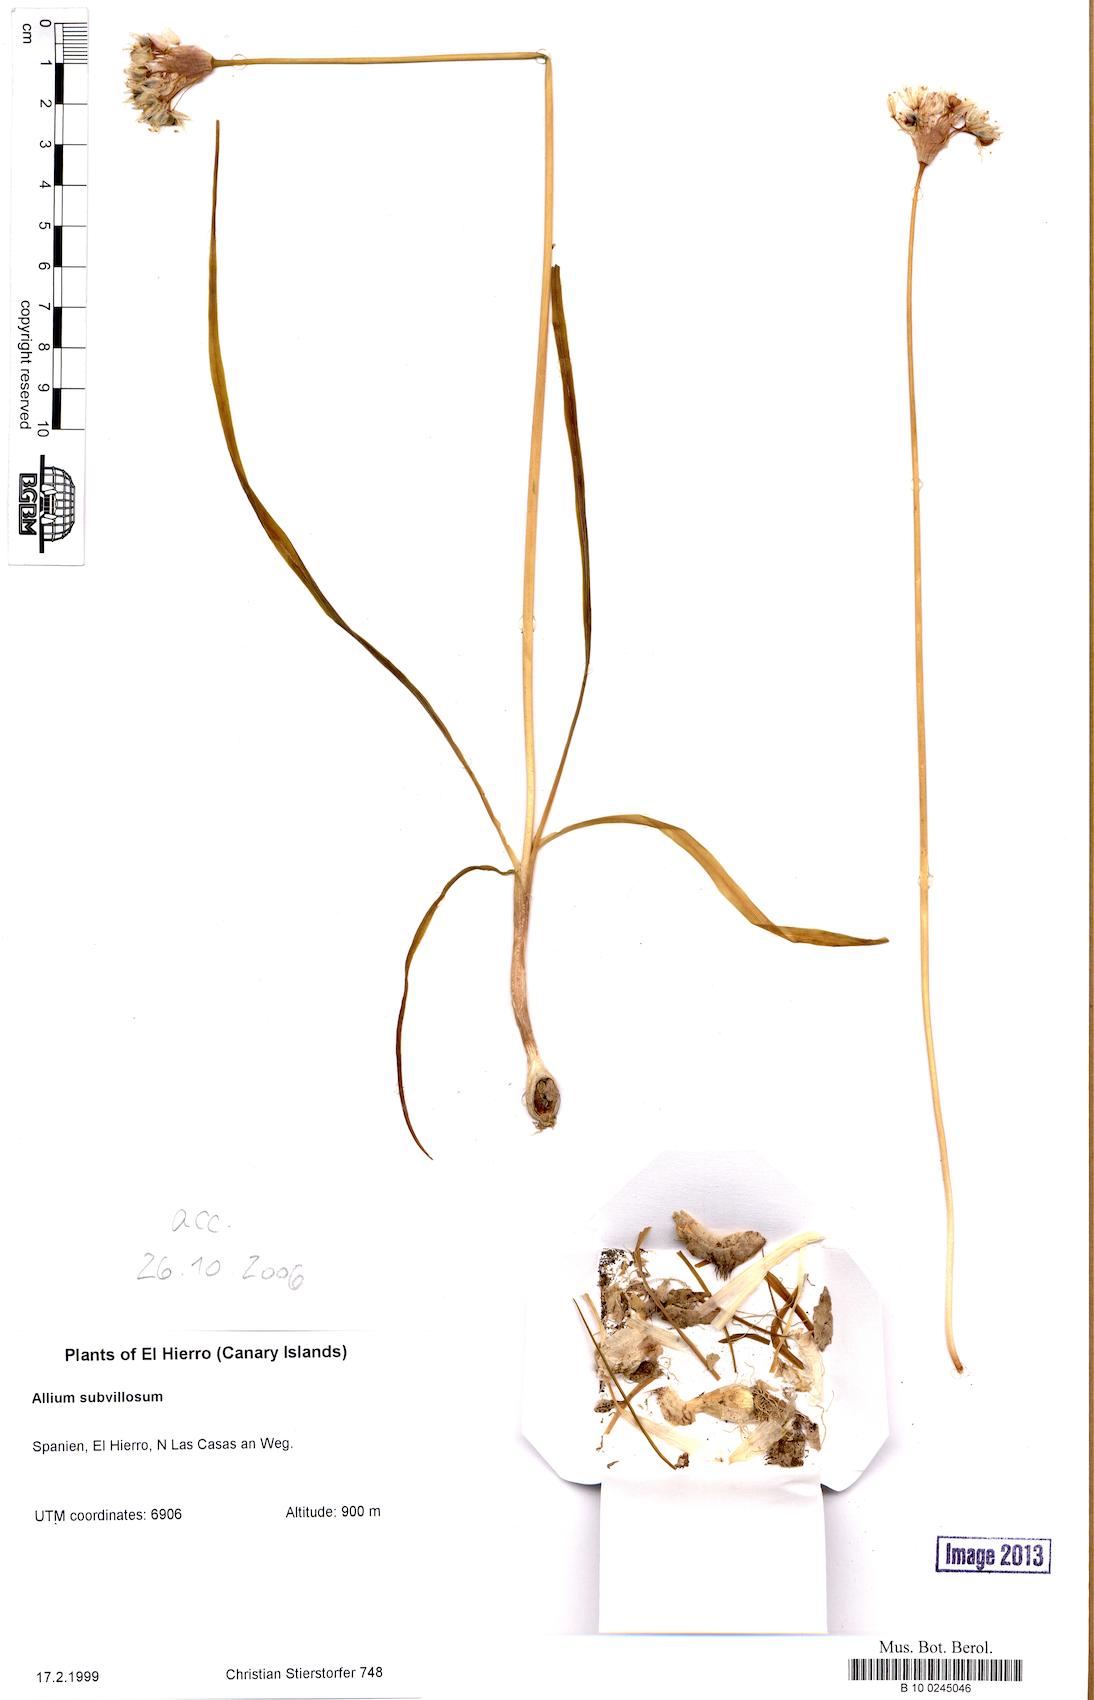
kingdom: Plantae
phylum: Tracheophyta
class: Liliopsida
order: Asparagales
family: Amaryllidaceae
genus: Allium
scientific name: Allium subvillosum
